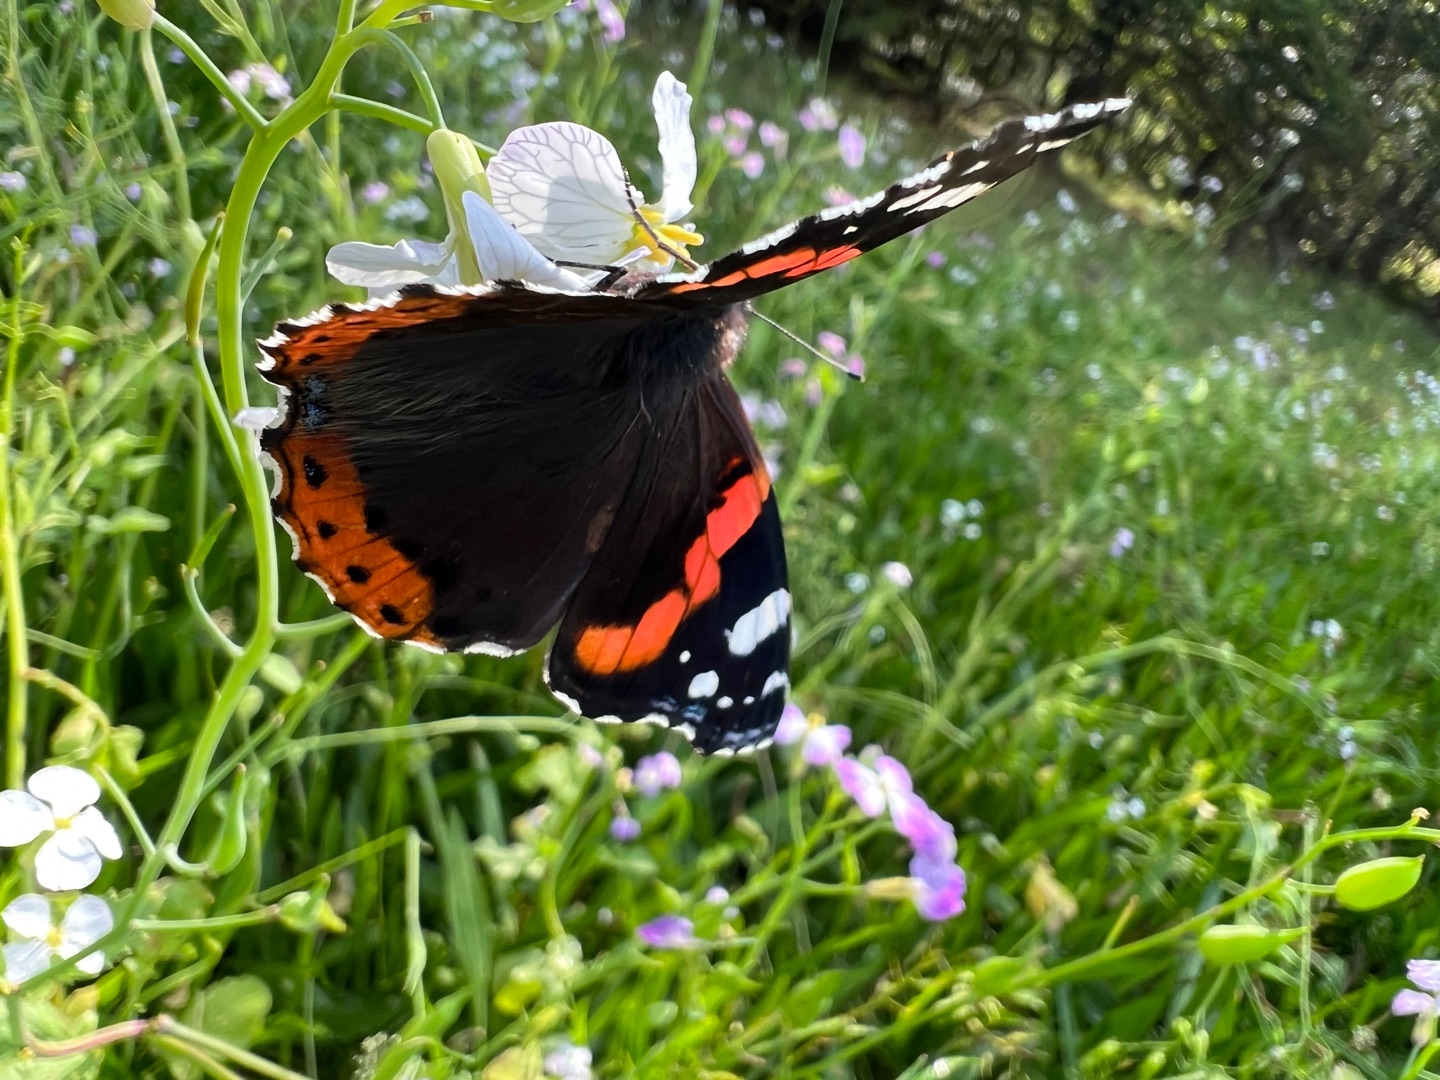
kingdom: Animalia
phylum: Arthropoda
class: Insecta
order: Lepidoptera
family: Nymphalidae
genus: Vanessa
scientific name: Vanessa atalanta
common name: Admiral
